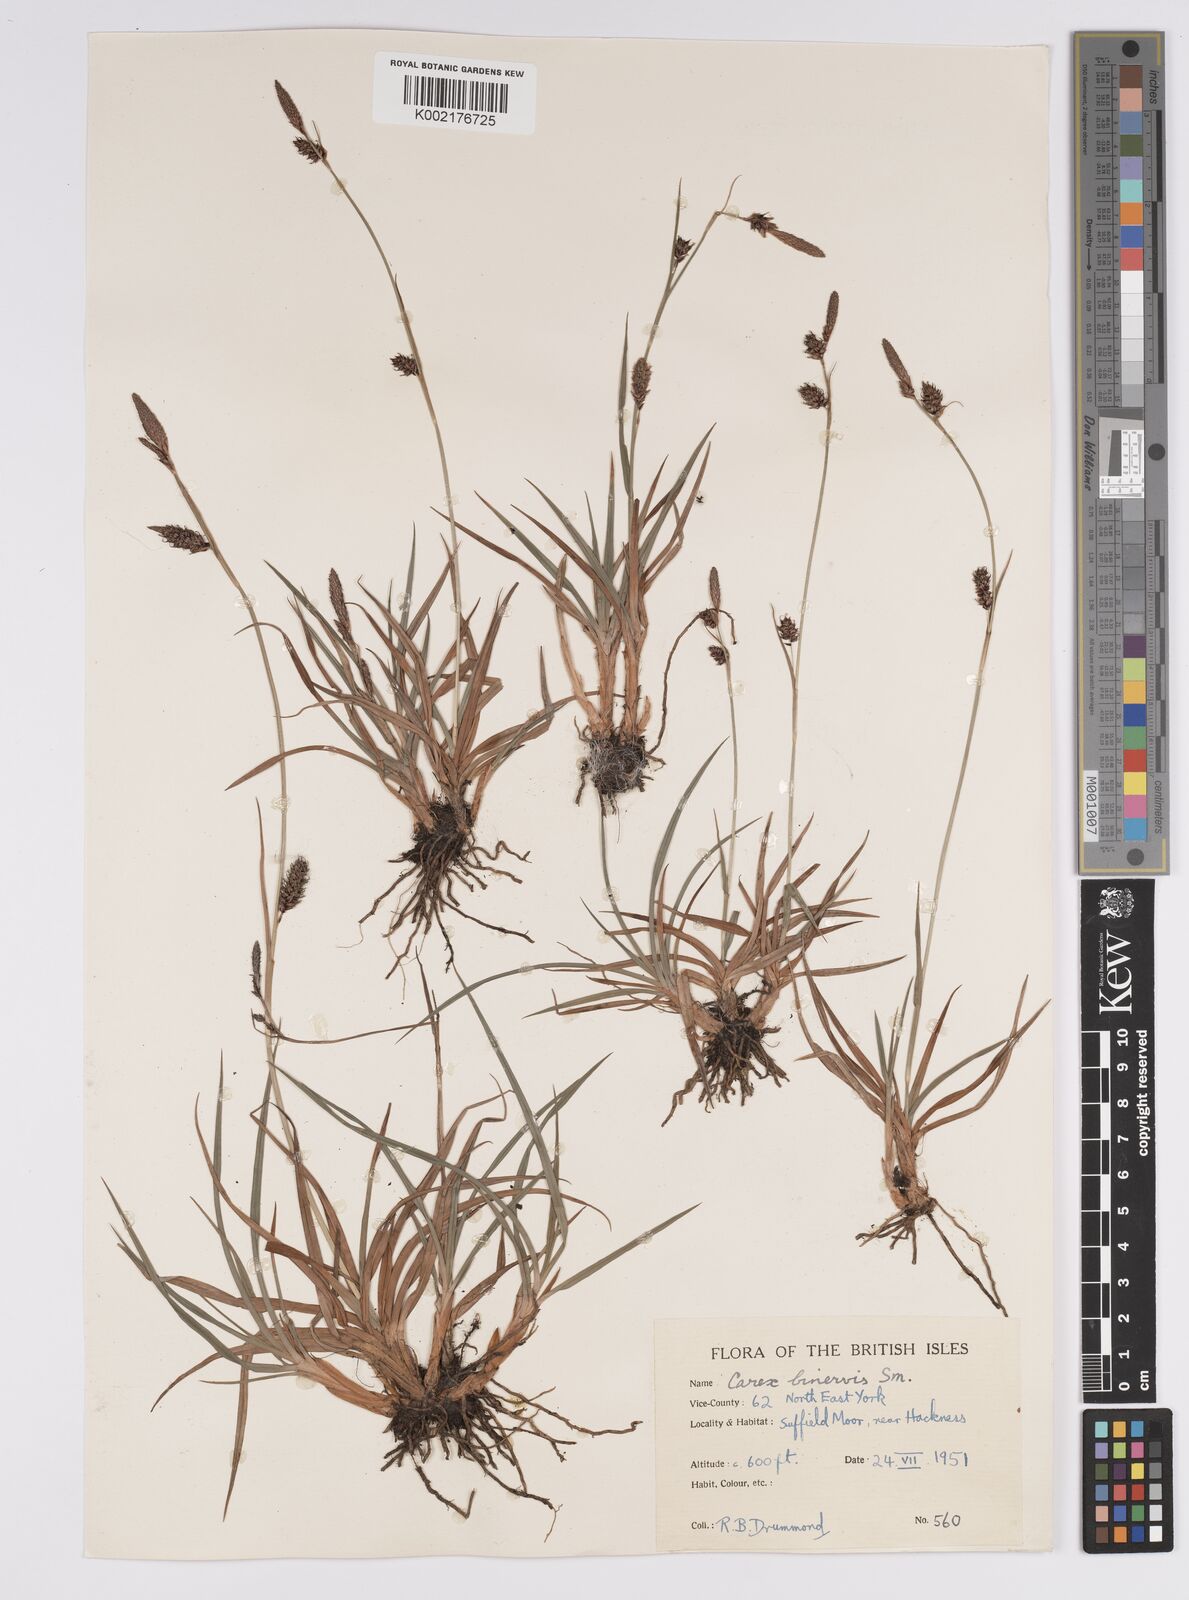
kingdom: Plantae
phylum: Tracheophyta
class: Liliopsida
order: Poales
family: Cyperaceae
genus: Carex
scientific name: Carex binervis
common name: Green-ribbed sedge
